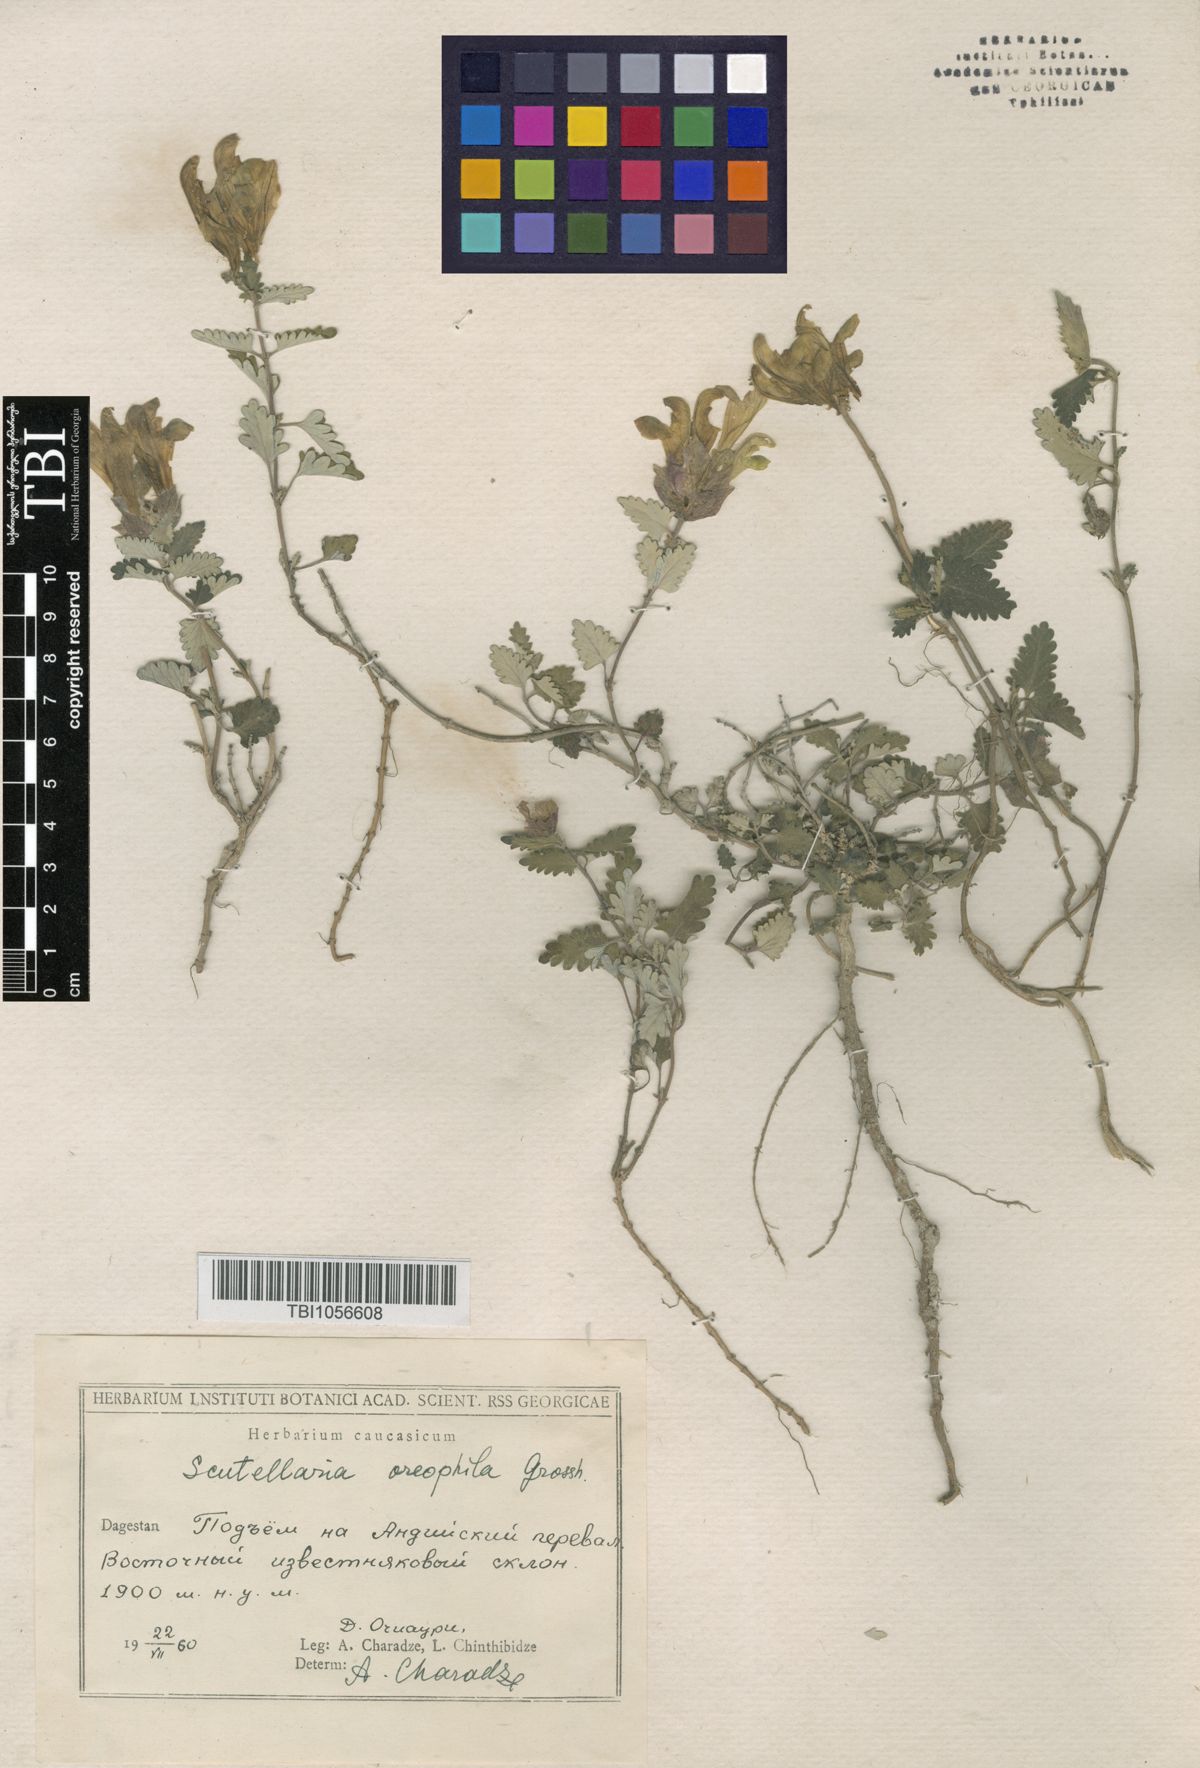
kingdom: Plantae
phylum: Tracheophyta
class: Magnoliopsida
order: Lamiales
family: Lamiaceae
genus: Scutellaria
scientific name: Scutellaria oreophila
